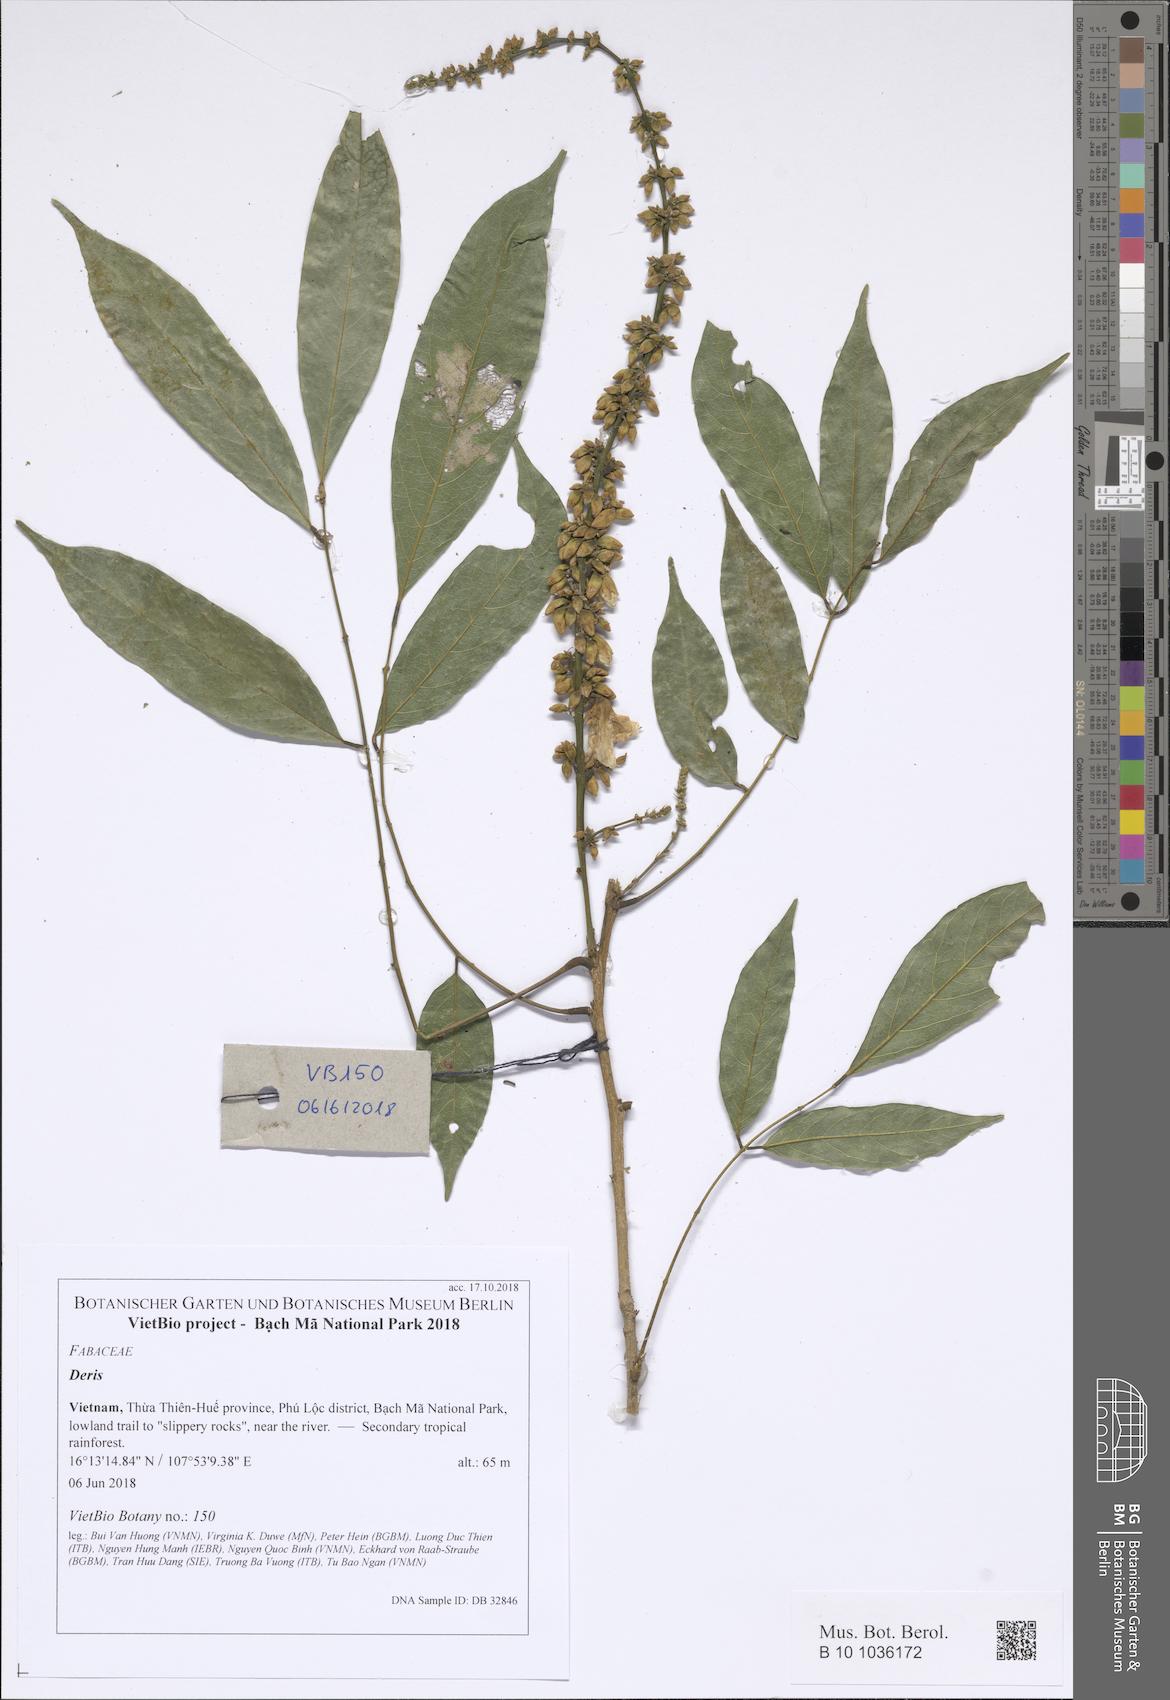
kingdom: Plantae
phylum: Tracheophyta
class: Magnoliopsida
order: Fabales
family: Fabaceae
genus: Derris
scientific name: Derris
